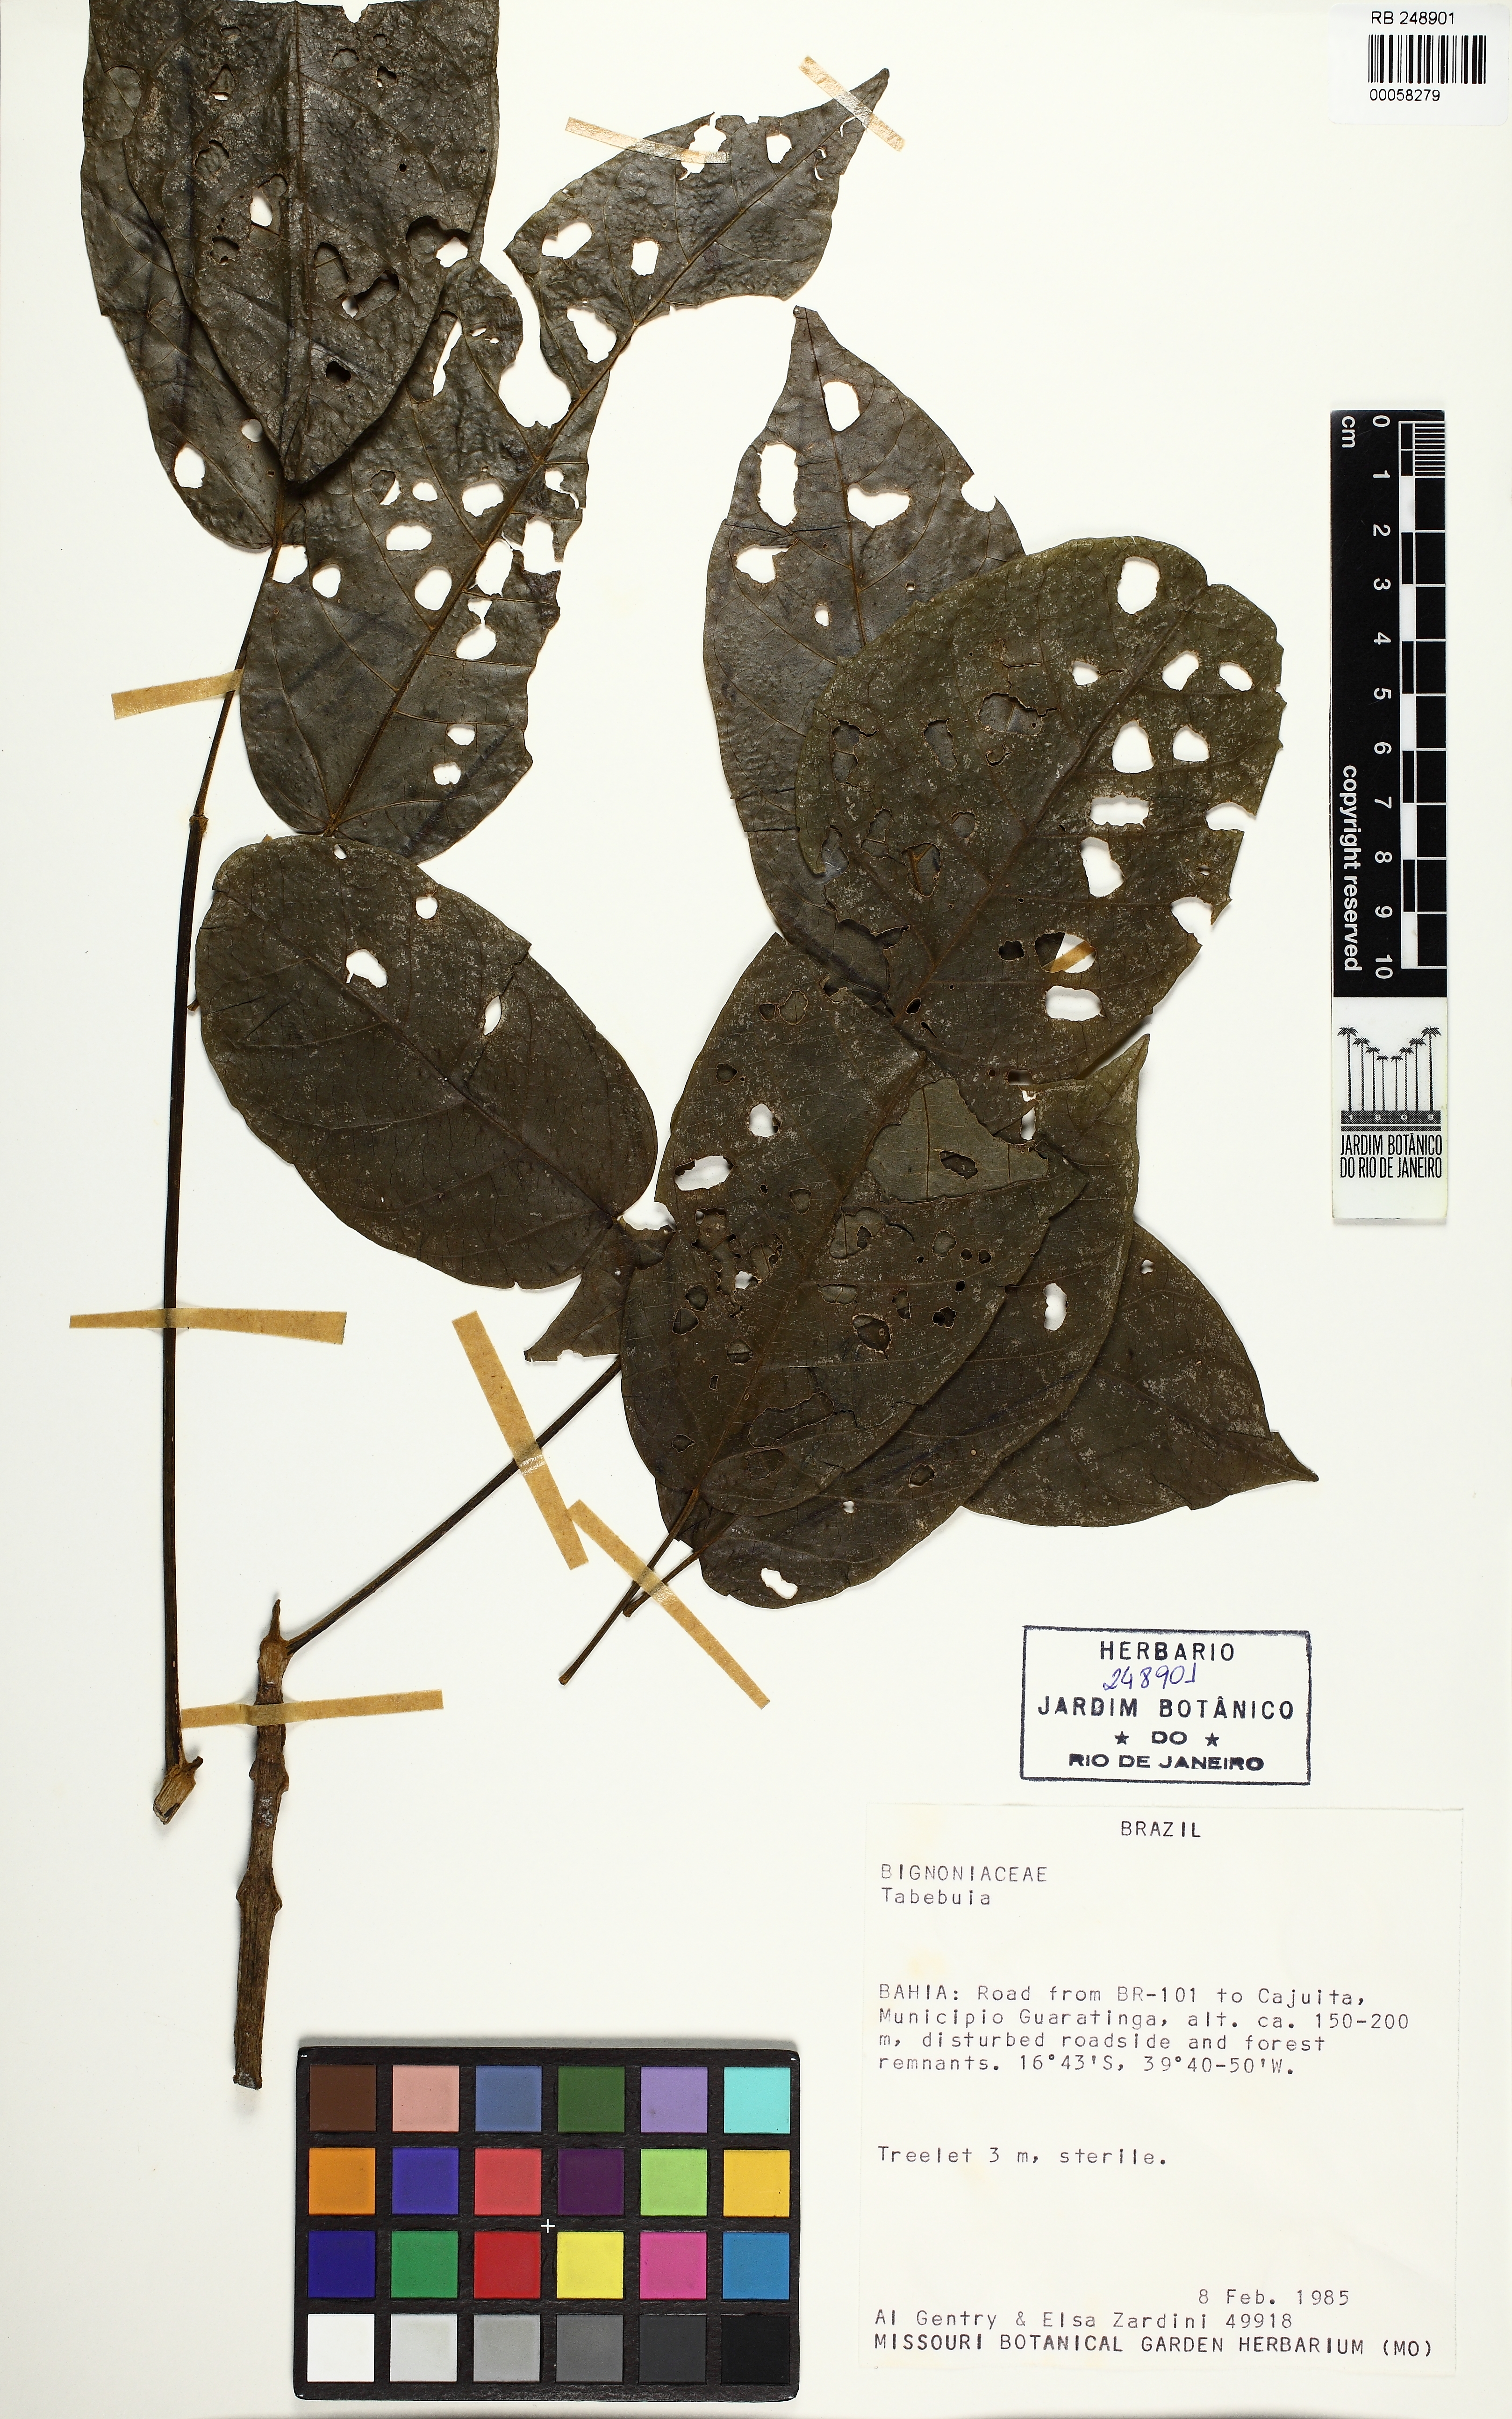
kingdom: Plantae
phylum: Tracheophyta
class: Magnoliopsida
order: Lamiales
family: Bignoniaceae
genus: Tabebuia
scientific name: Tabebuia
